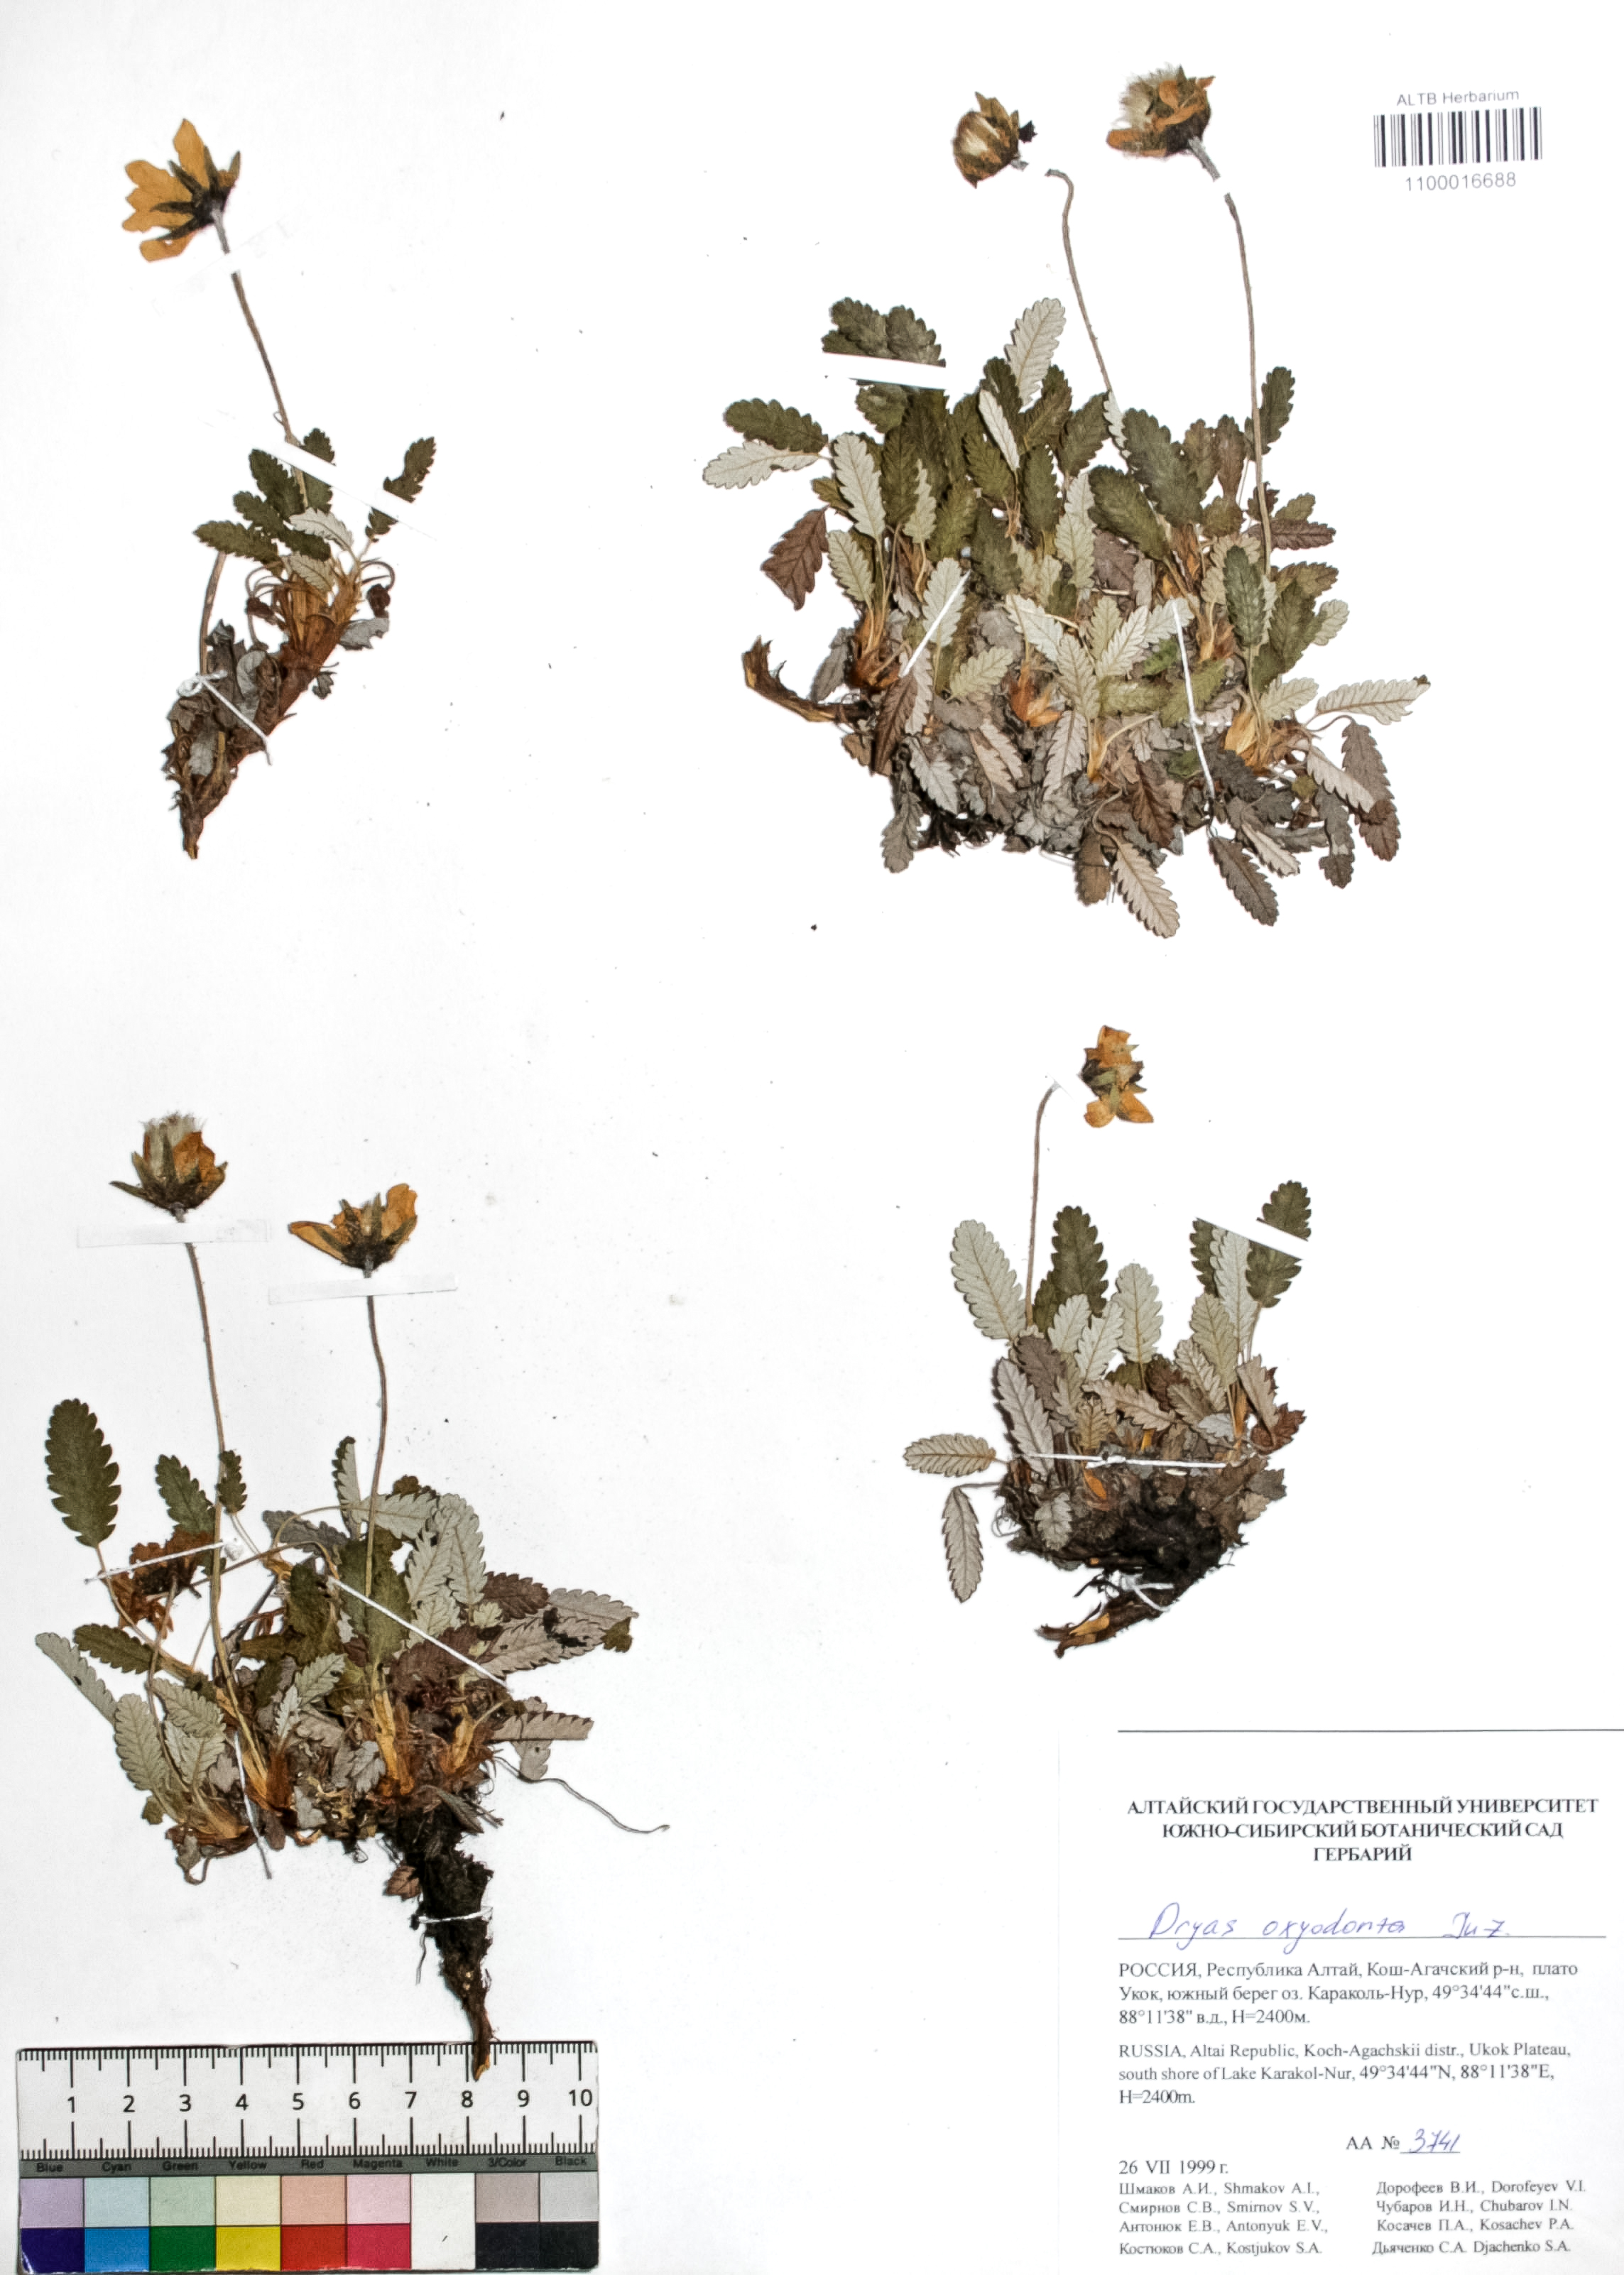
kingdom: Plantae
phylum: Tracheophyta
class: Magnoliopsida
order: Rosales
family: Rosaceae
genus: Dryas
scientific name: Dryas octopetala
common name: Eight-petal mountain-avens
